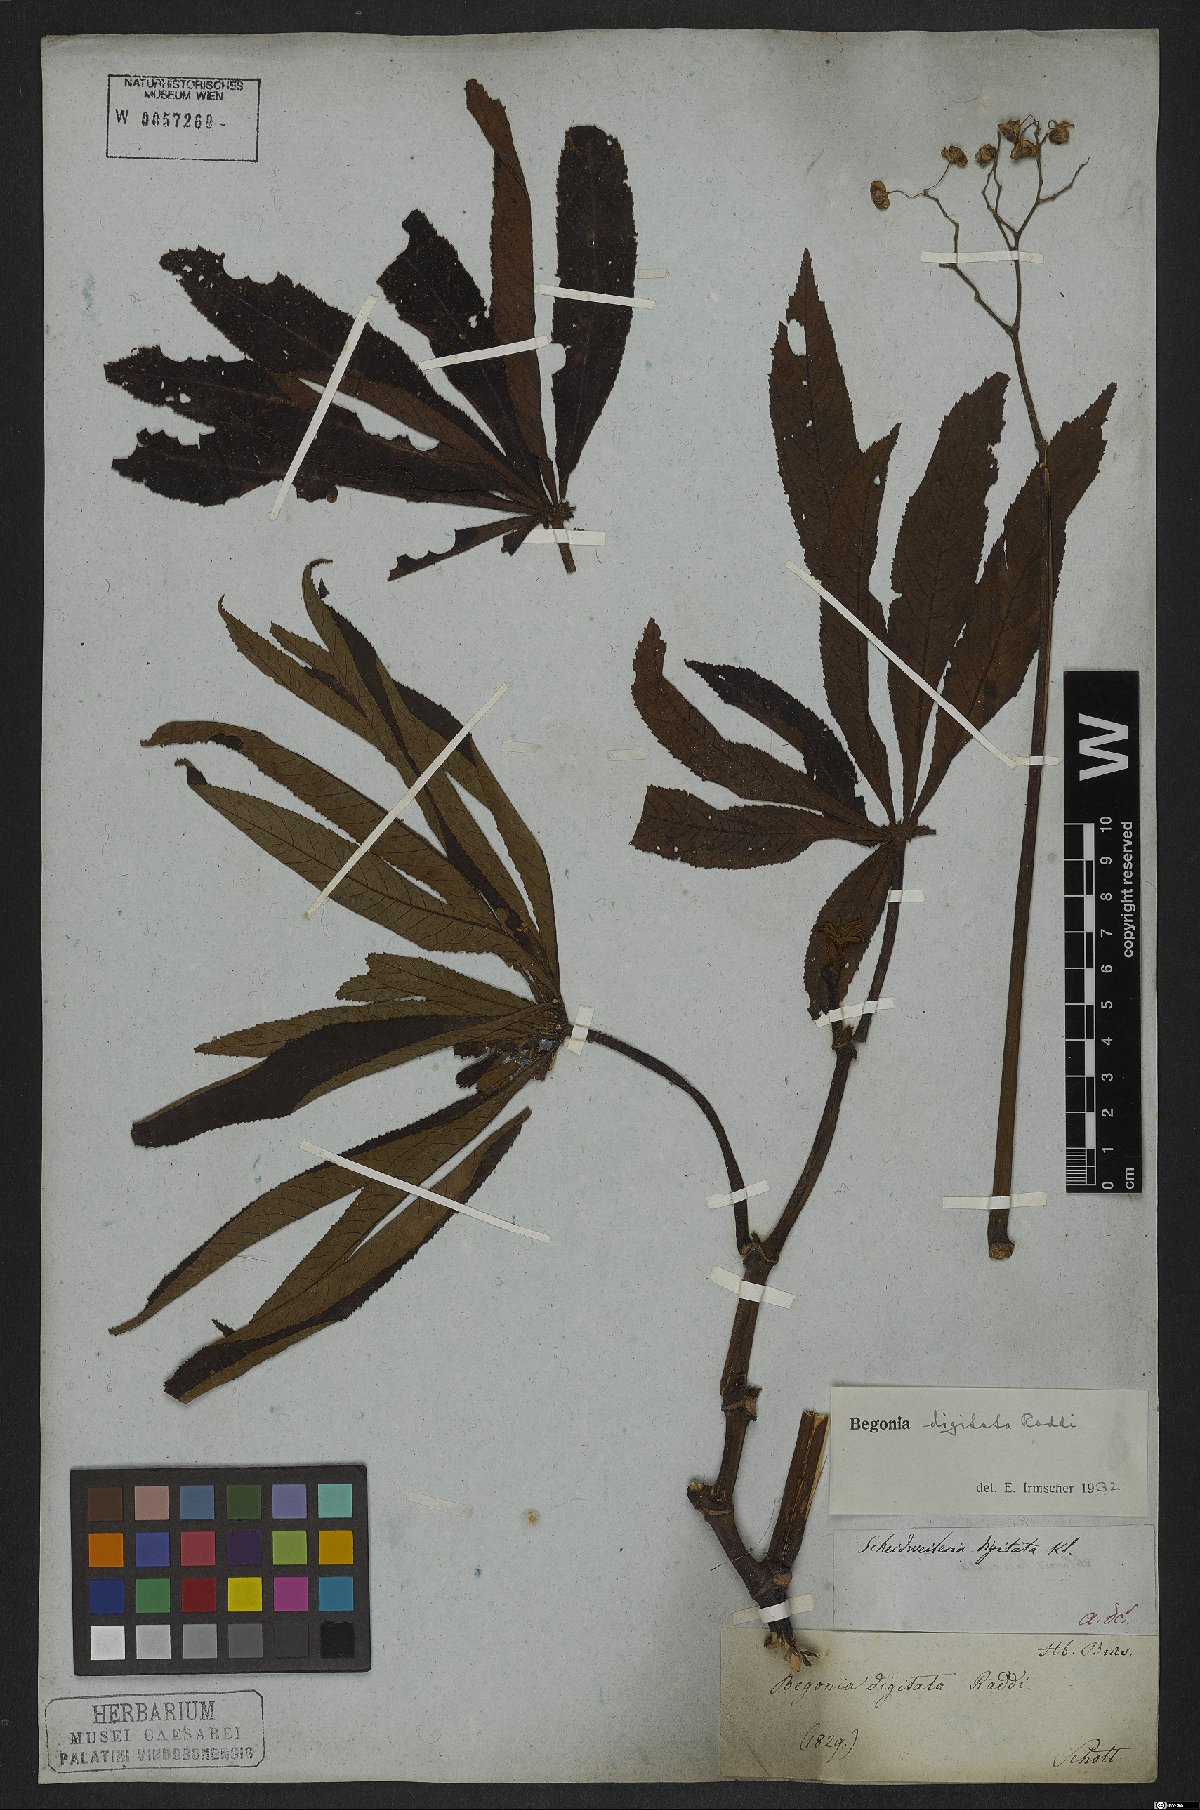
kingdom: Plantae
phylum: Tracheophyta
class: Magnoliopsida
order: Cucurbitales
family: Begoniaceae
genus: Begonia
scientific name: Begonia digitata
